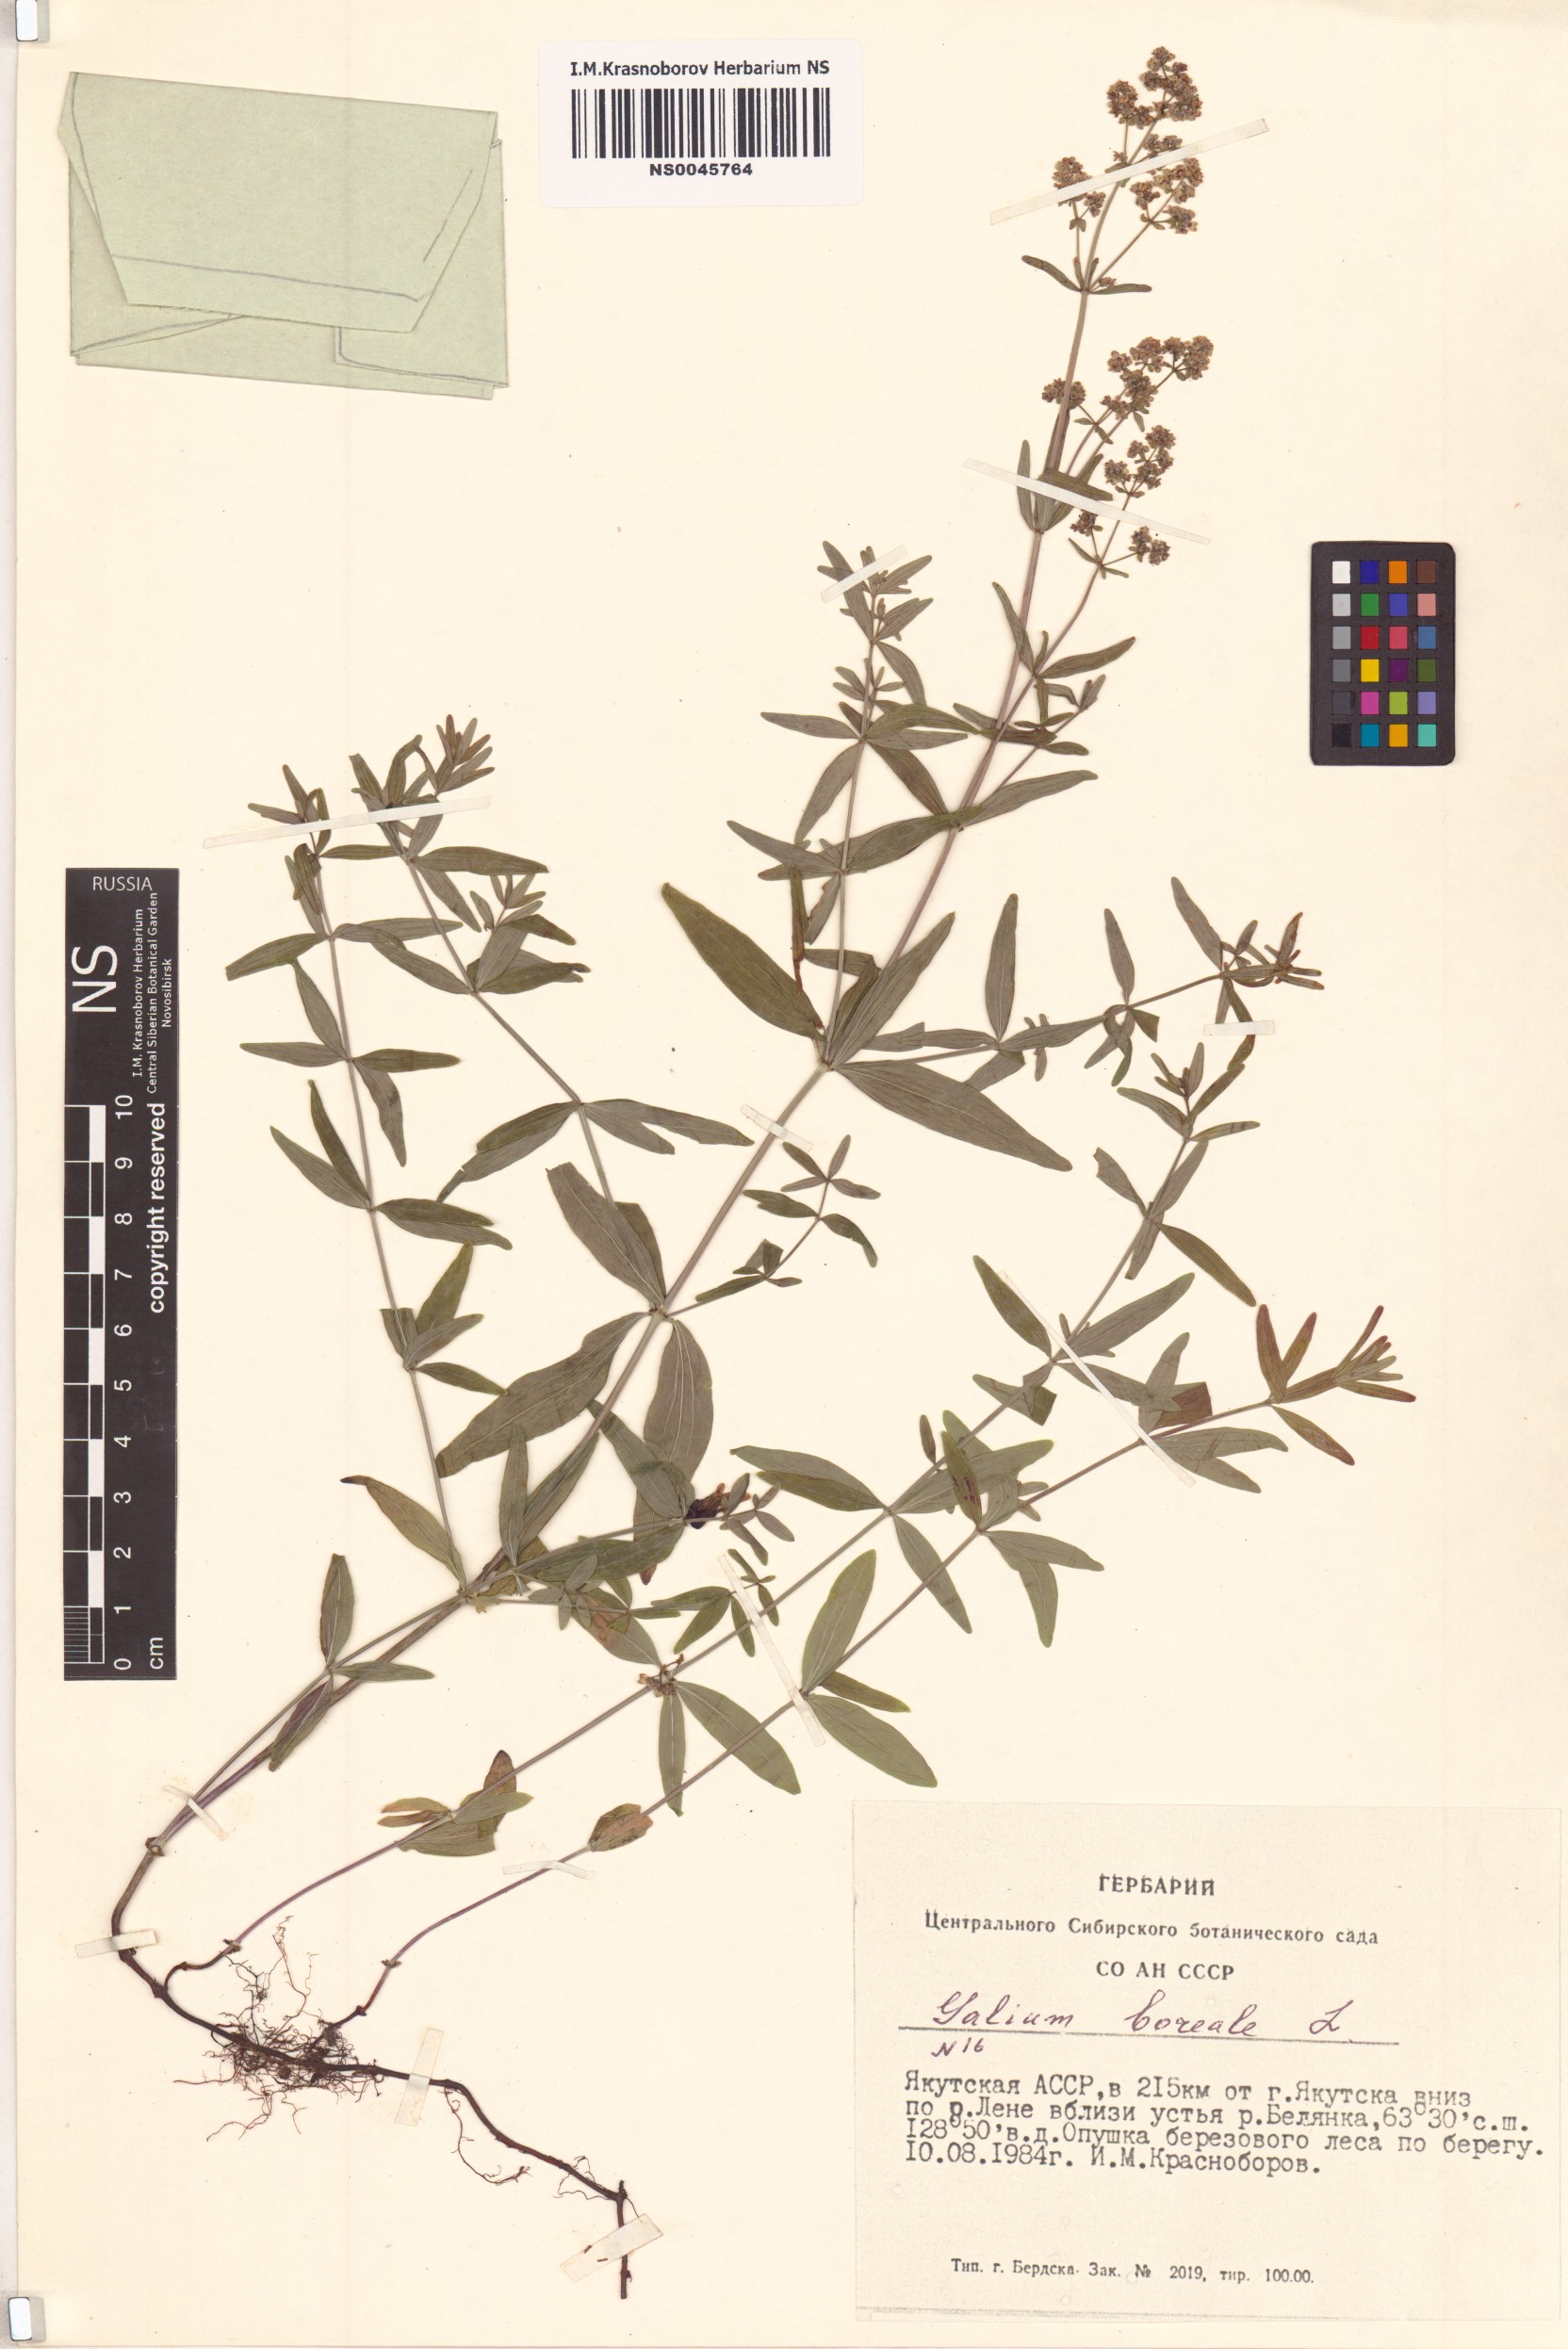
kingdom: Plantae
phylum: Tracheophyta
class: Magnoliopsida
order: Gentianales
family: Rubiaceae
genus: Galium
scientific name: Galium boreale
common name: Northern bedstraw
